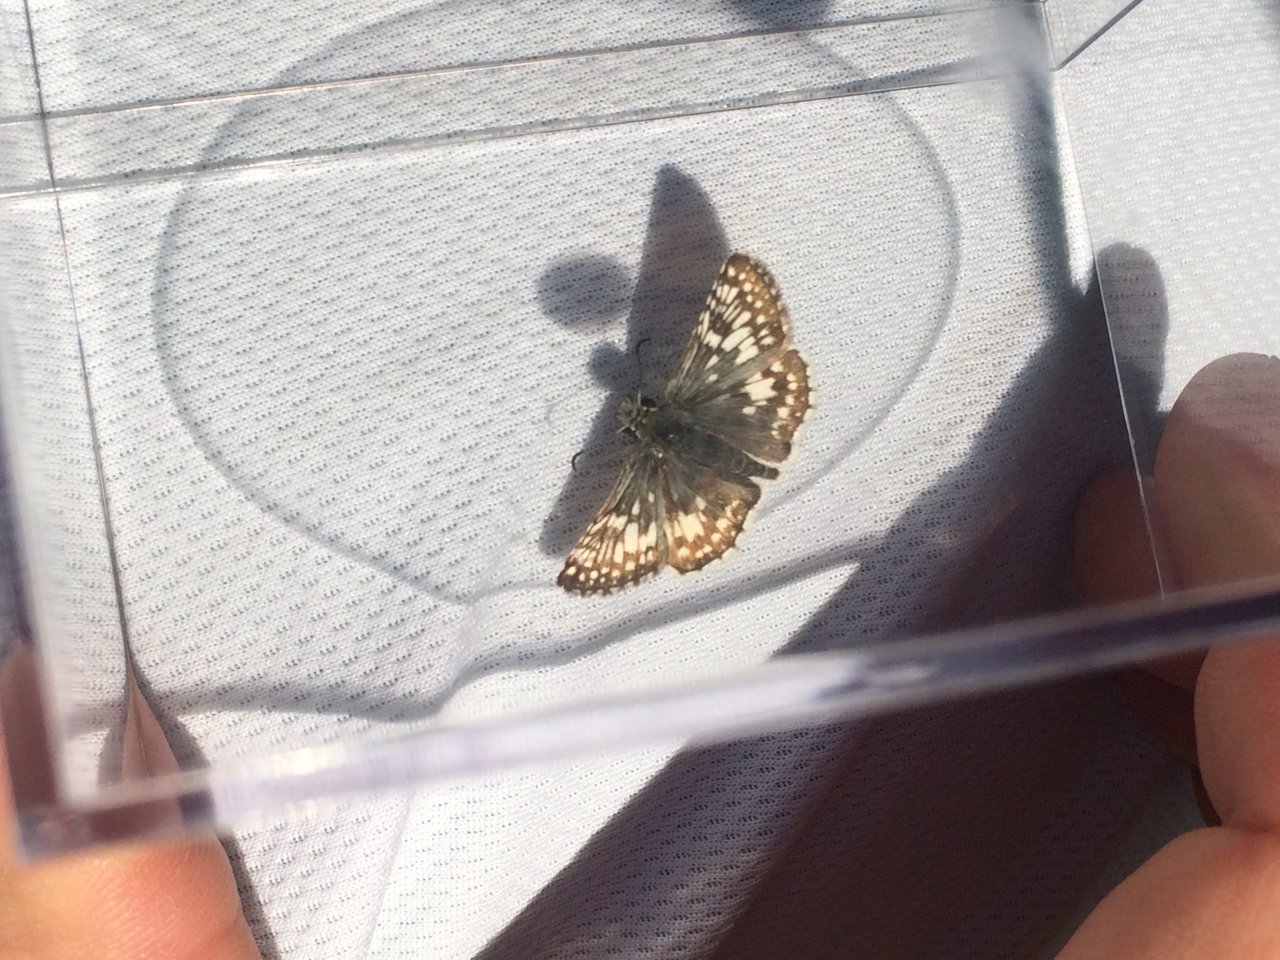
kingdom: Animalia
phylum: Arthropoda
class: Insecta
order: Lepidoptera
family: Hesperiidae
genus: Pyrgus
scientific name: Pyrgus communis
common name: Common Checkered-Skipper
